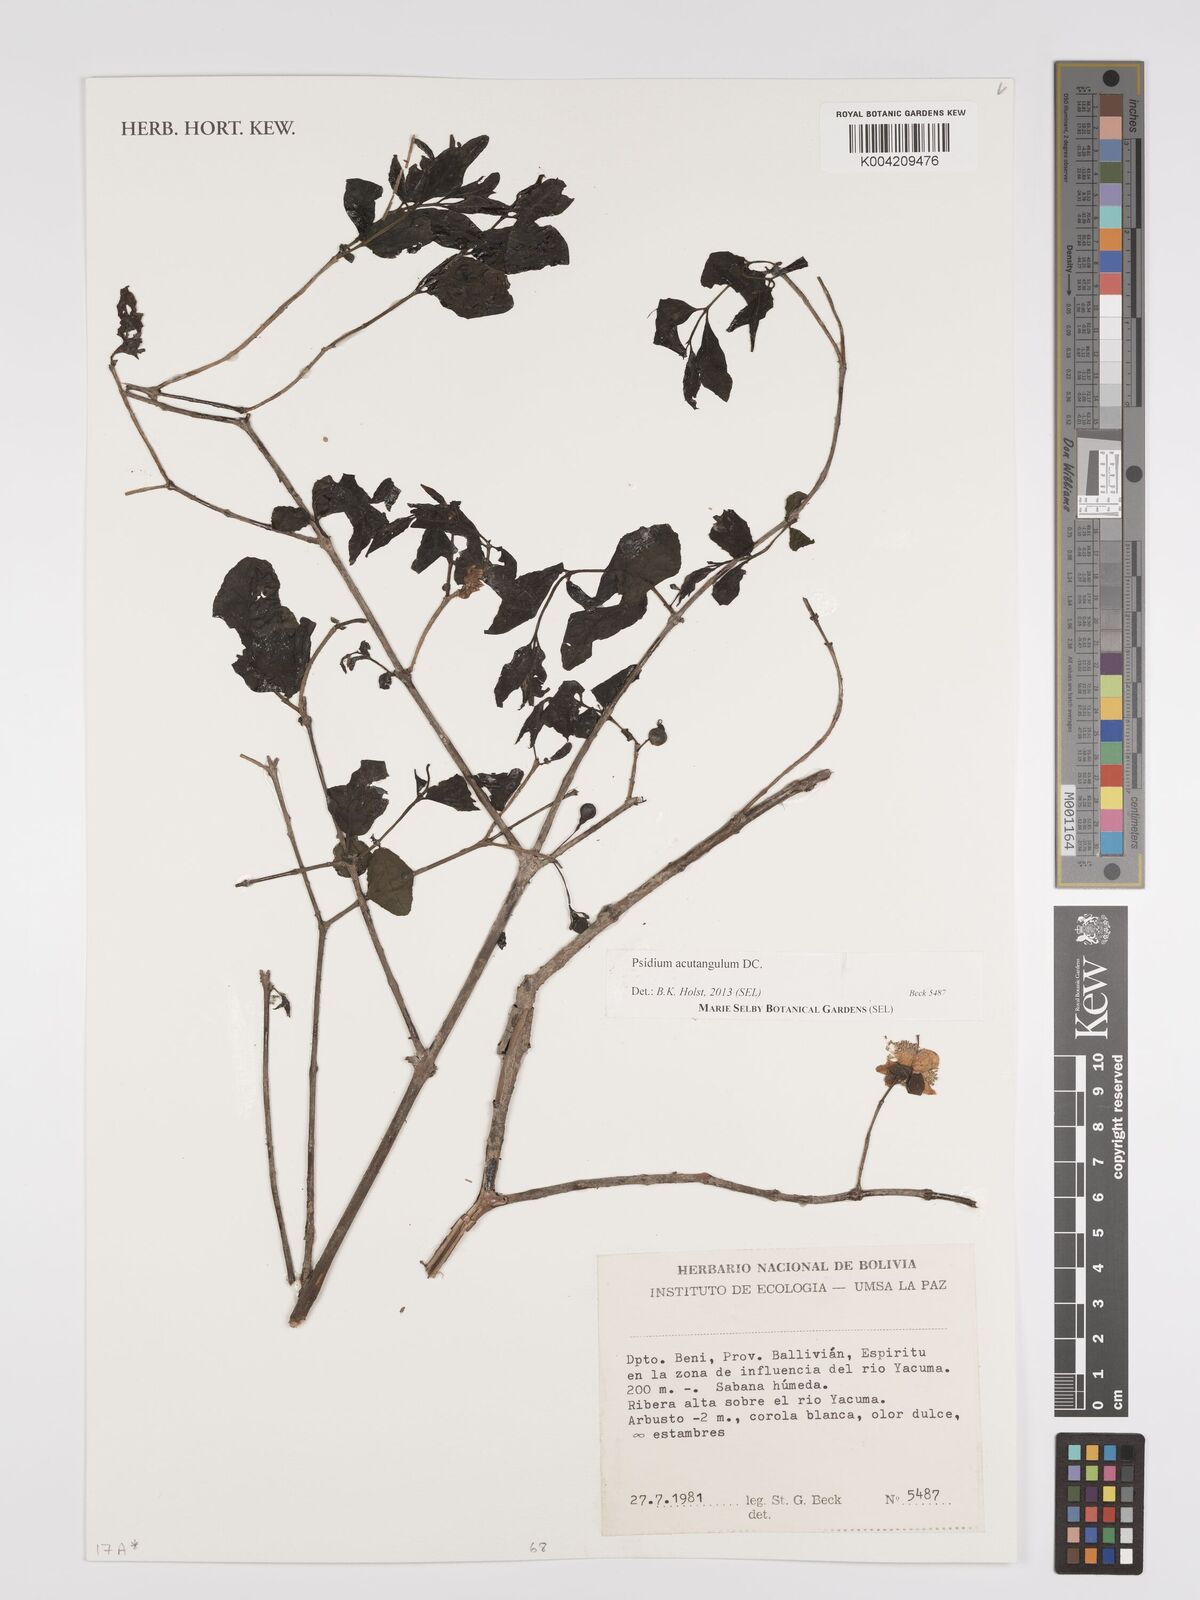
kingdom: Plantae
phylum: Tracheophyta
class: Magnoliopsida
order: Myrtales
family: Myrtaceae
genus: Psidium
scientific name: Psidium acutangulum
